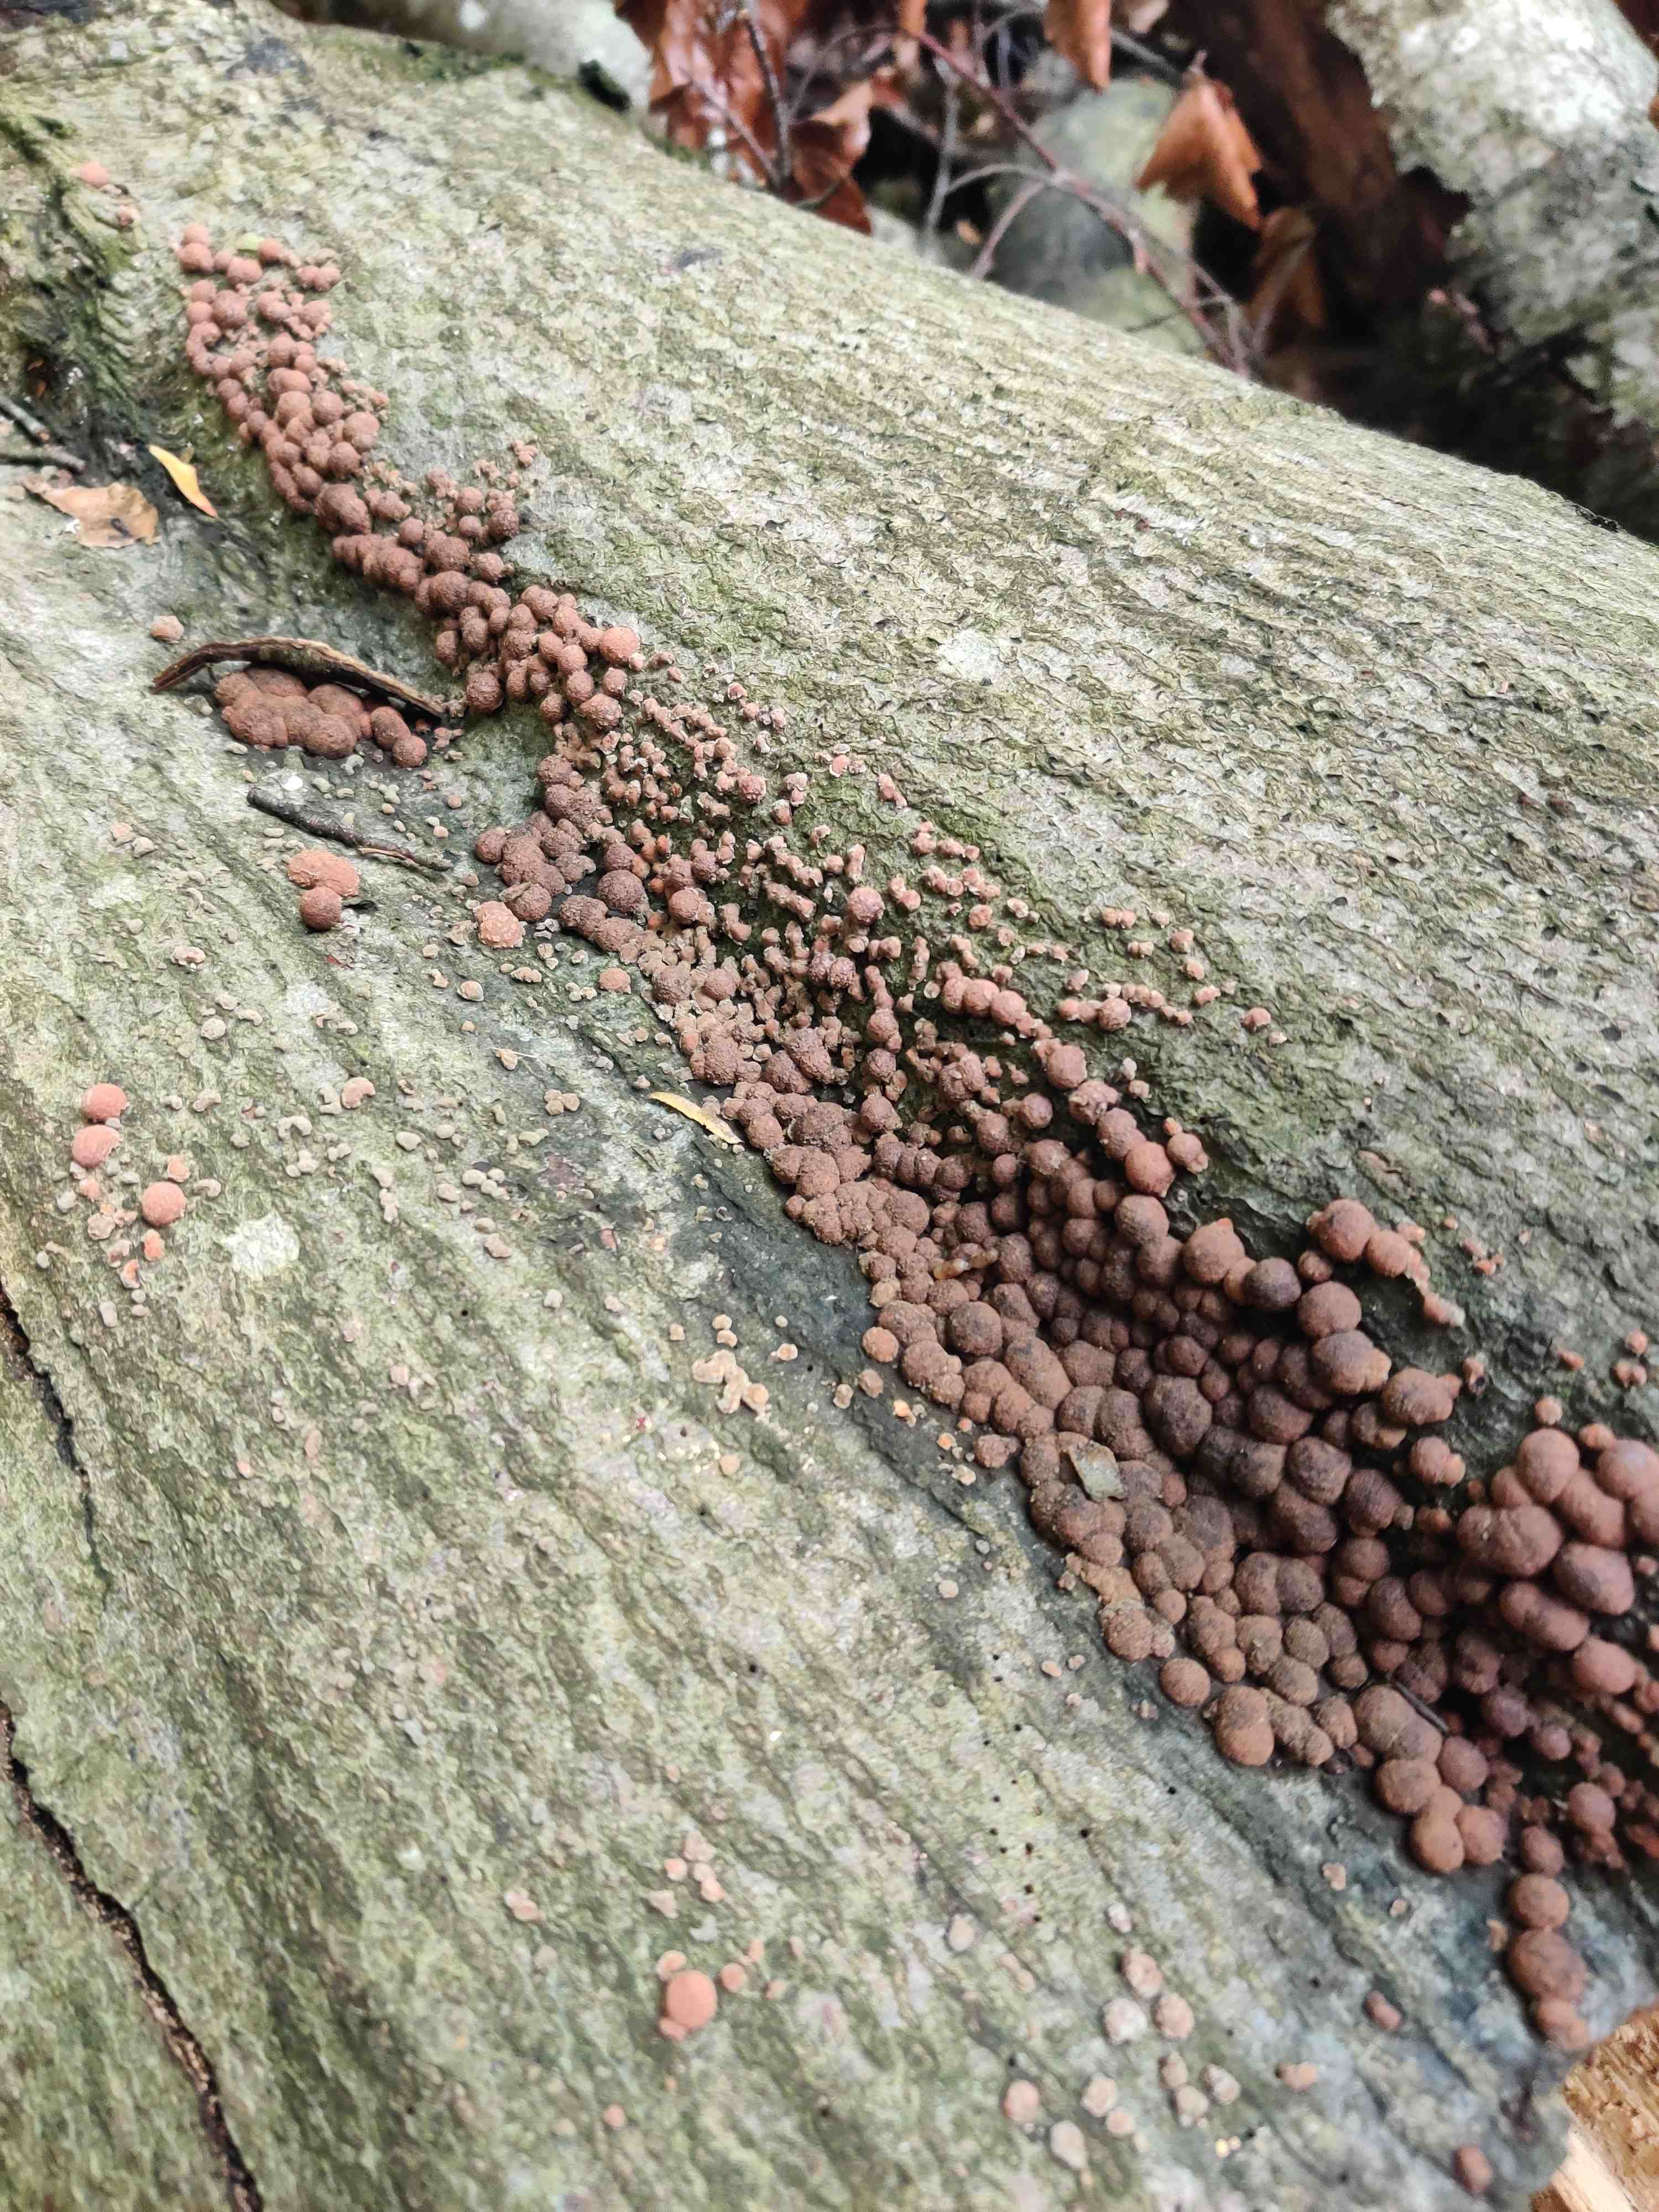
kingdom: Fungi
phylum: Ascomycota
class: Sordariomycetes
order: Xylariales
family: Hypoxylaceae
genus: Hypoxylon
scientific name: Hypoxylon fragiforme
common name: kuljordbær
